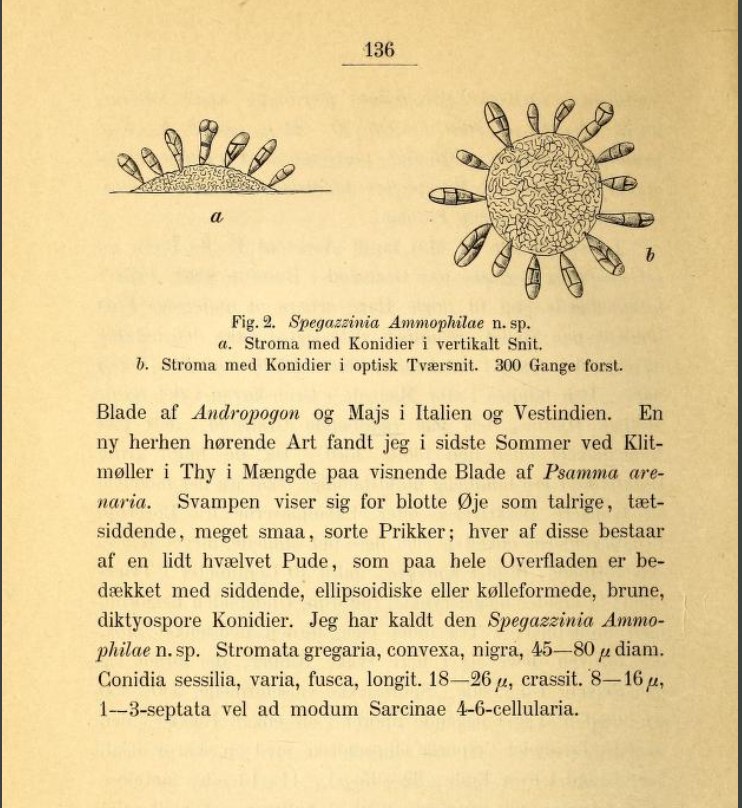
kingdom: Fungi
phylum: Ascomycota
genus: Thyrostromella
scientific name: Thyrostromella myriana
